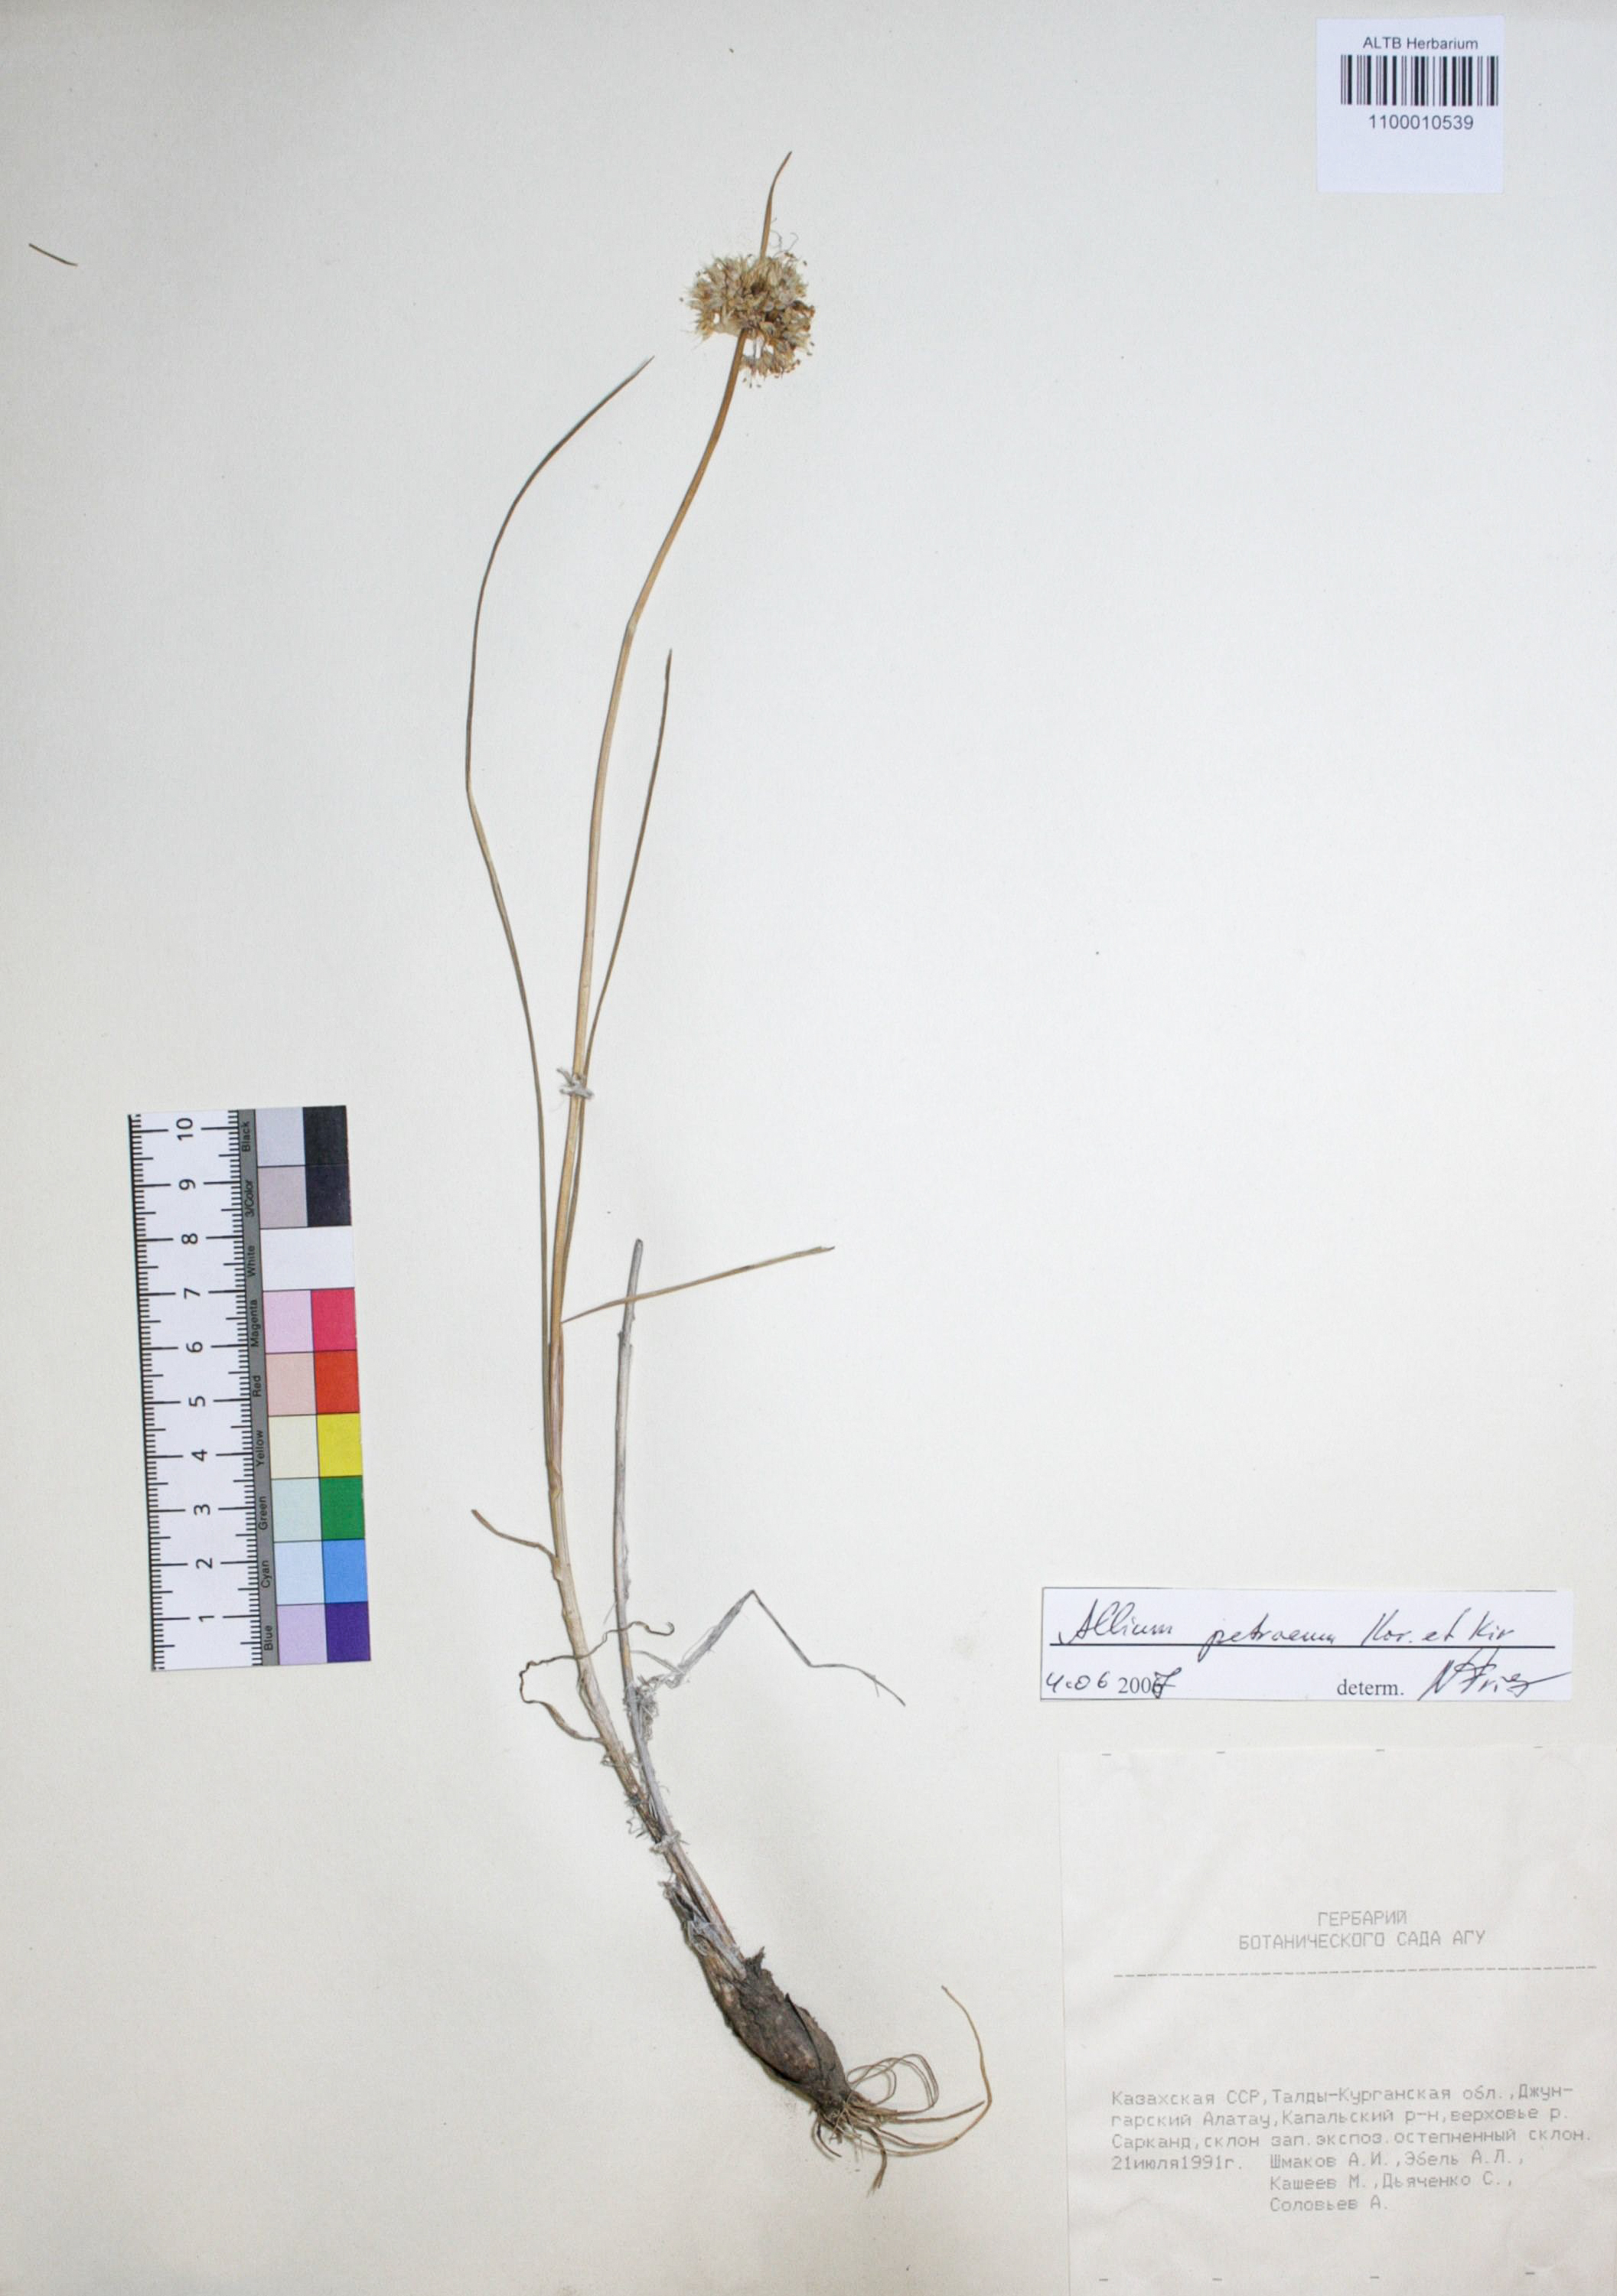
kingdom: Plantae
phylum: Tracheophyta
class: Liliopsida
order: Asparagales
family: Amaryllidaceae
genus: Allium
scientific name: Allium petraeum
